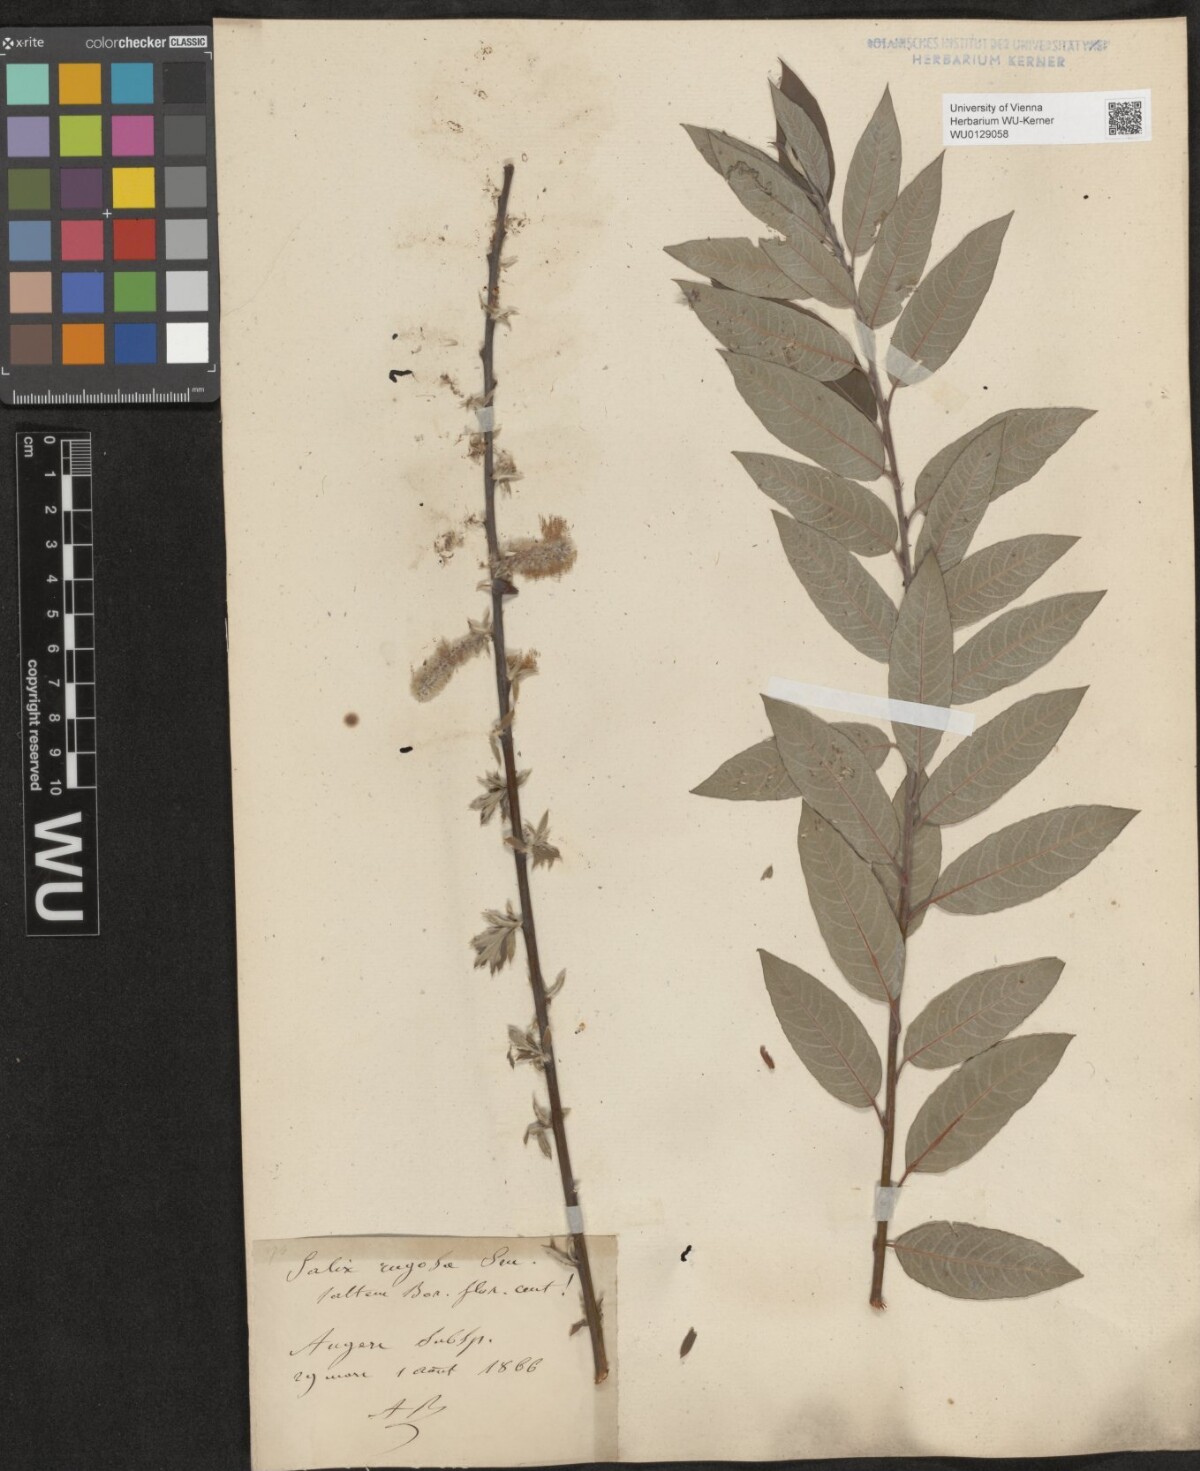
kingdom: Plantae
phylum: Tracheophyta
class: Magnoliopsida
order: Malpighiales
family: Salicaceae
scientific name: Salicaceae
